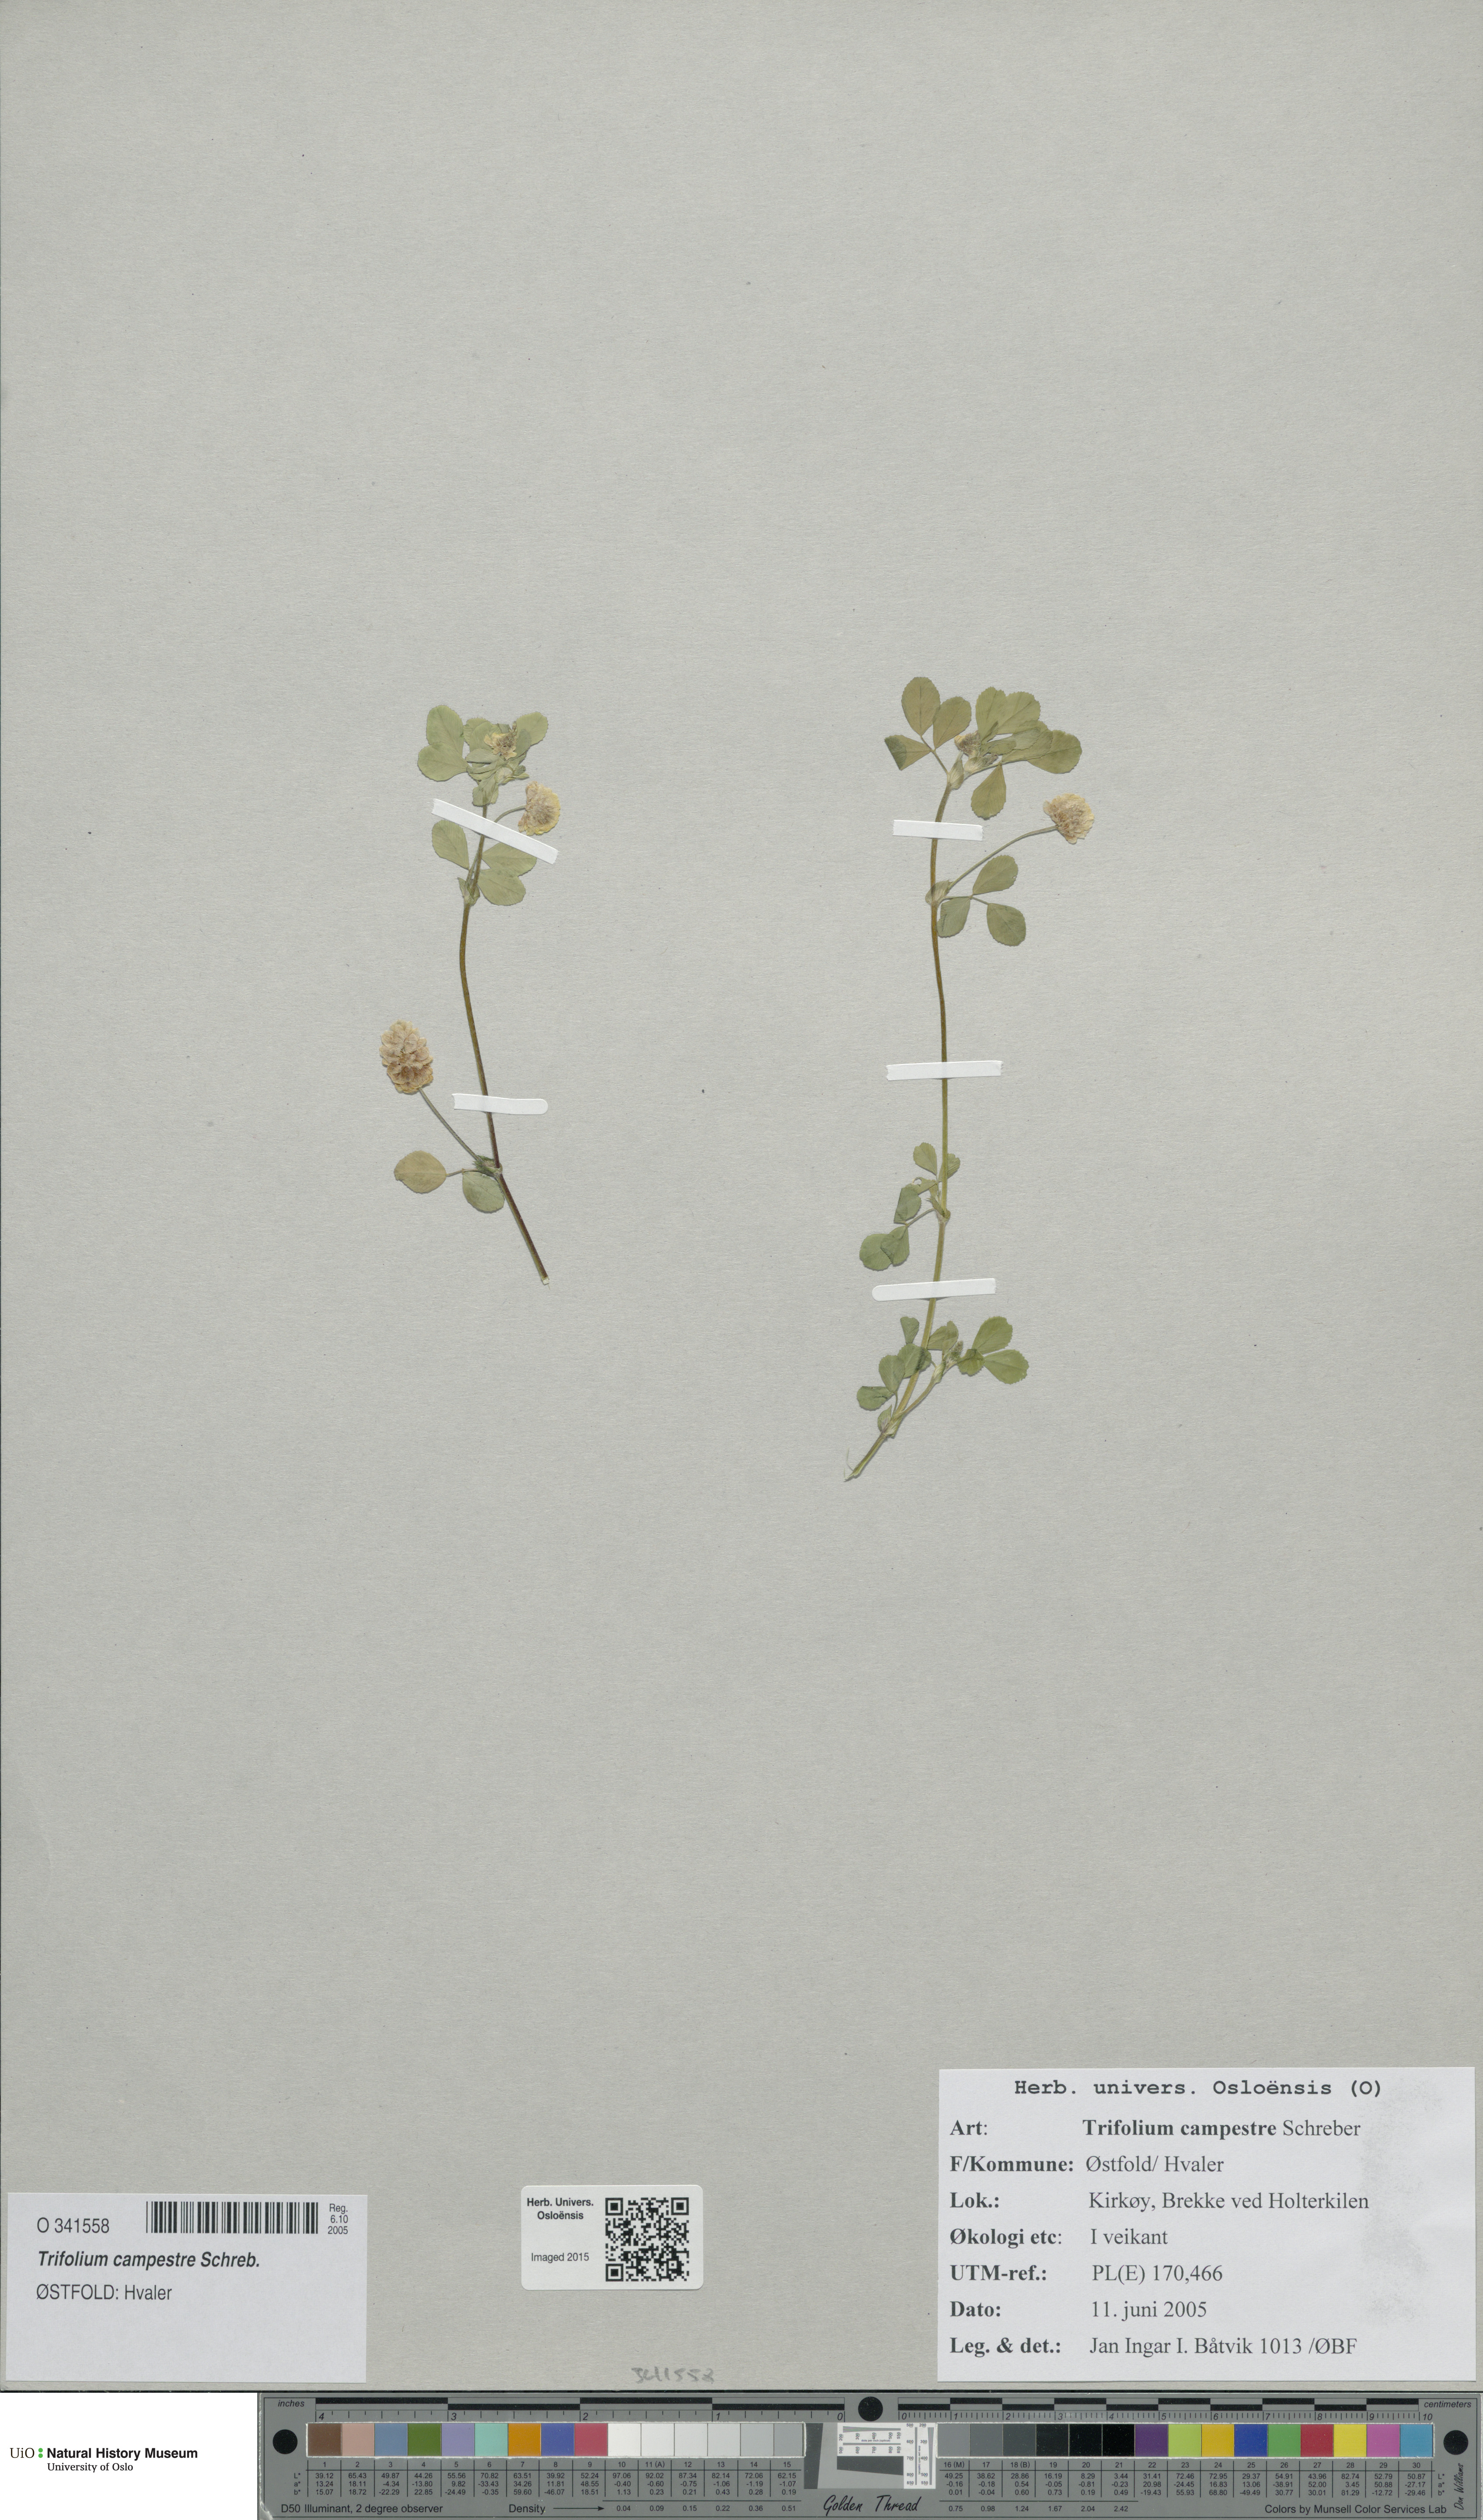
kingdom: Plantae
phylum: Tracheophyta
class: Magnoliopsida
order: Fabales
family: Fabaceae
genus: Trifolium
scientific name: Trifolium campestre
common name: Field clover
